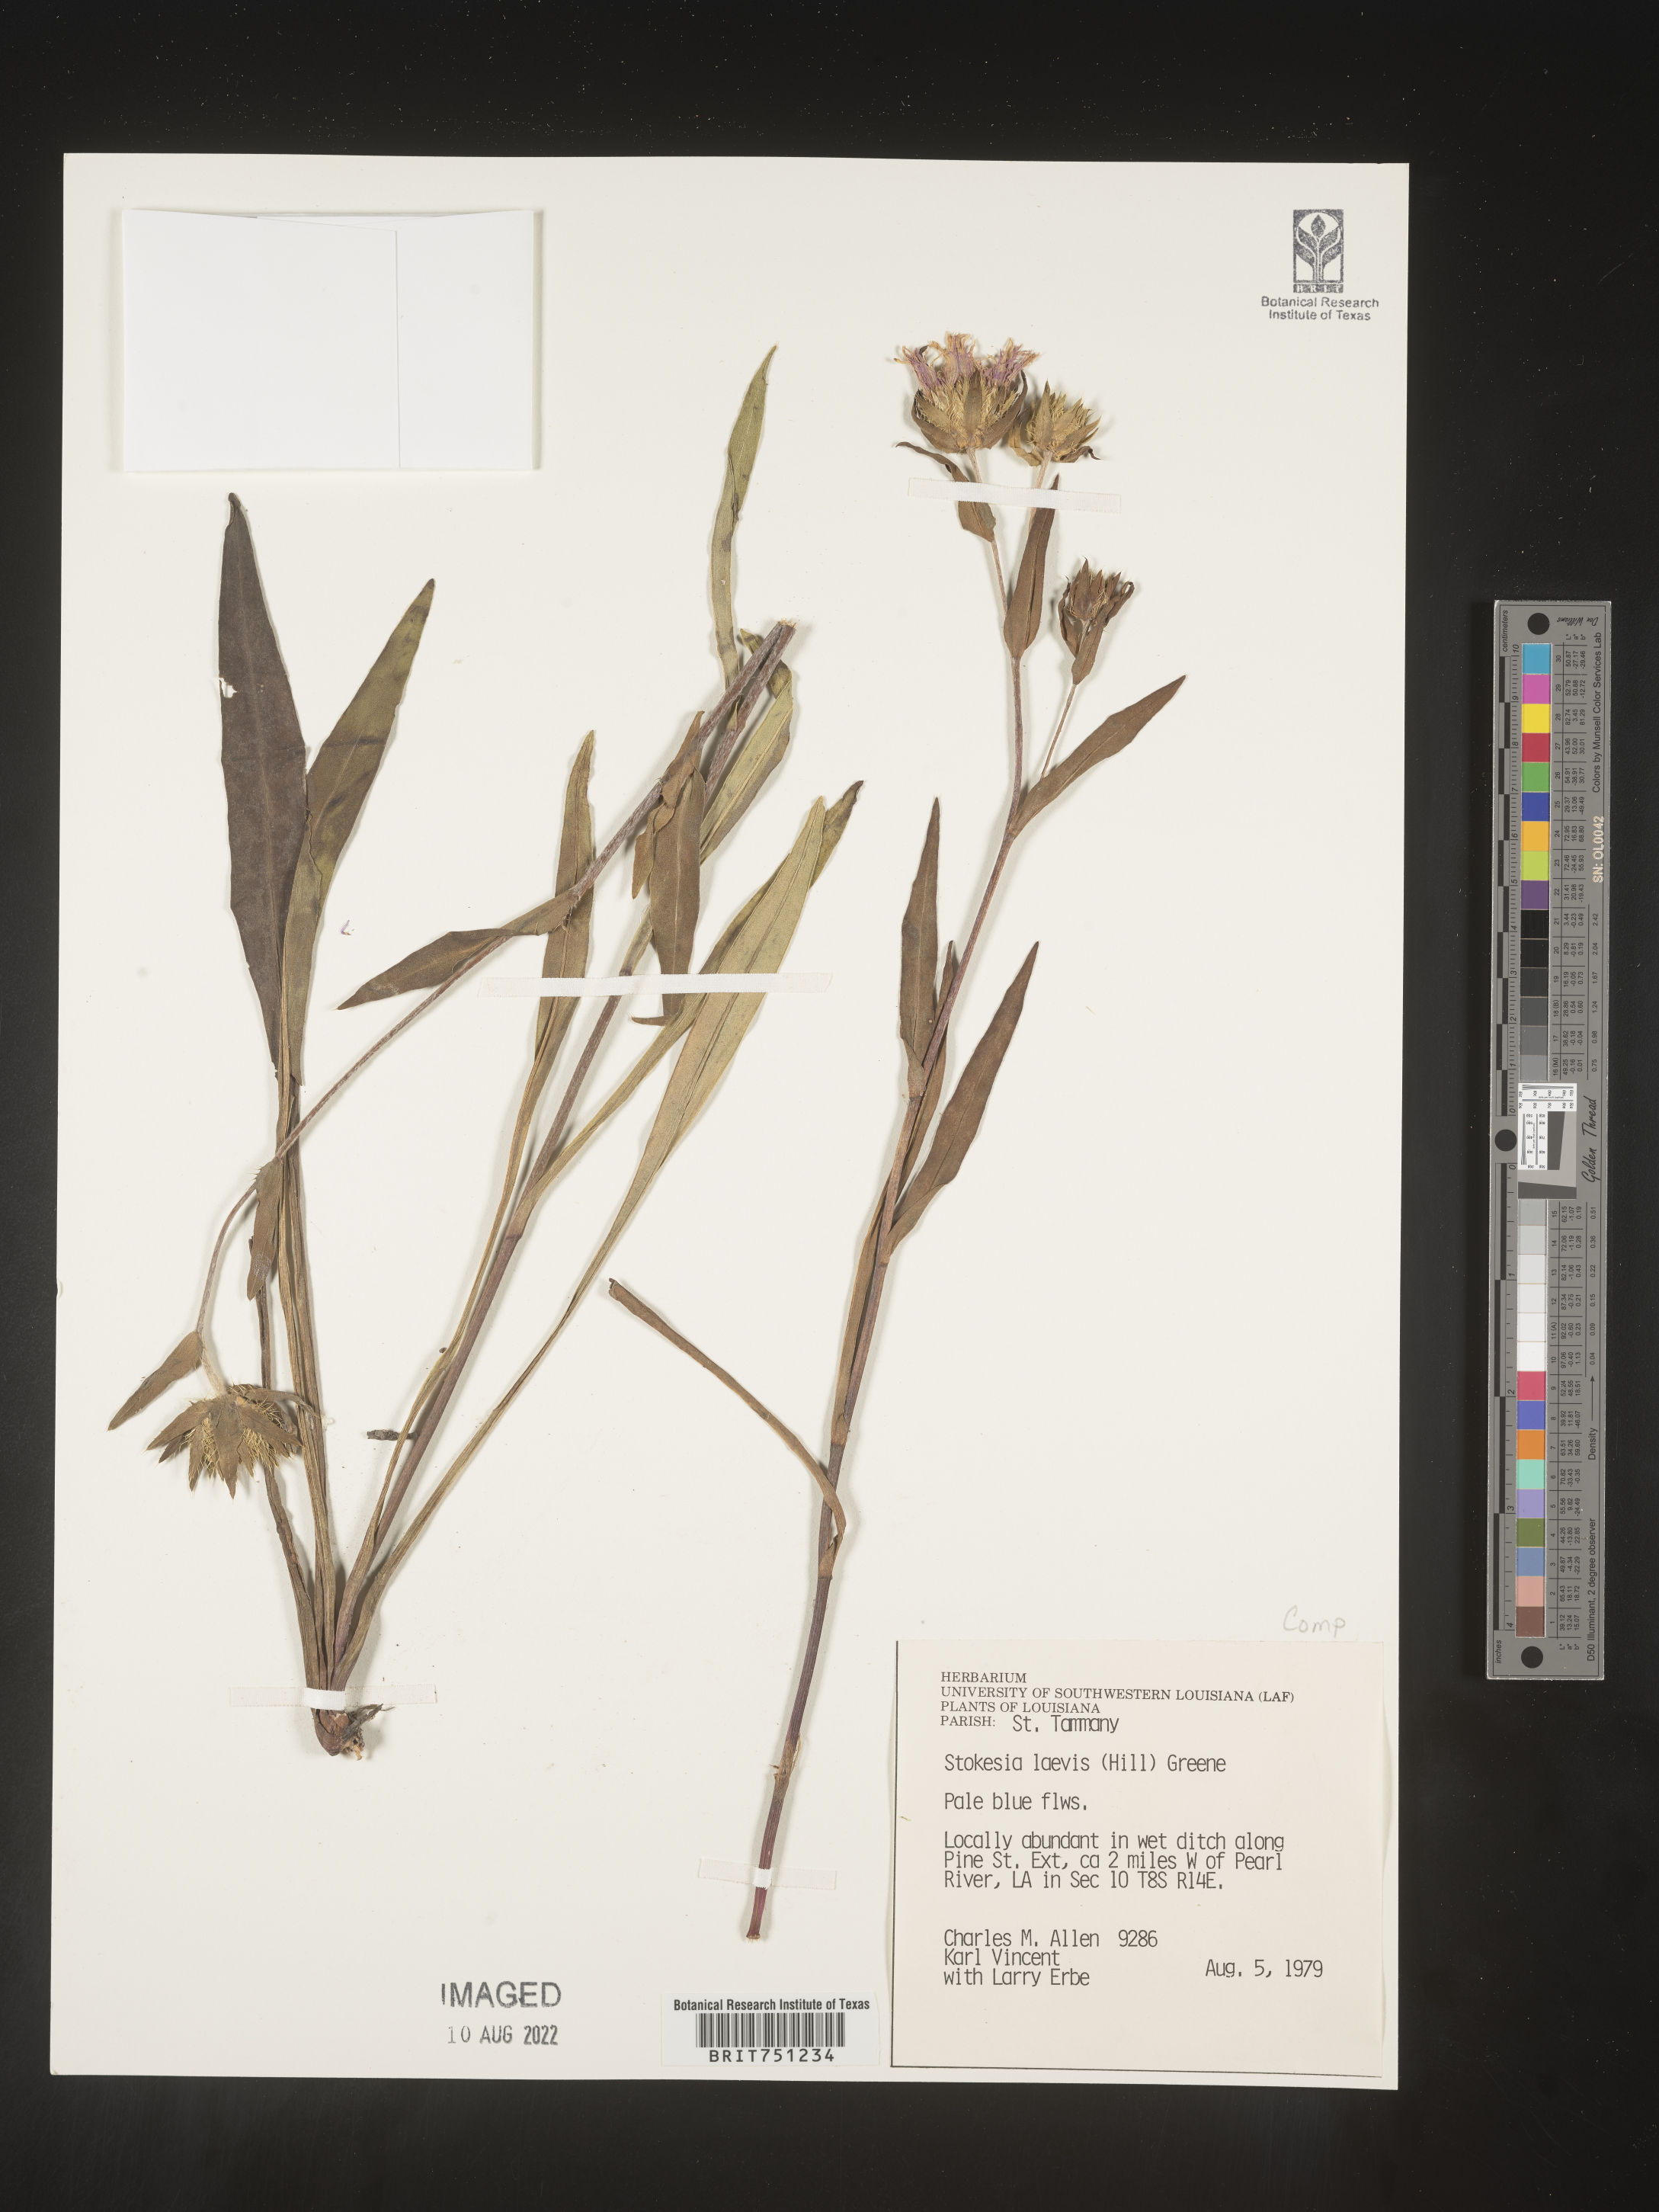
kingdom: Plantae
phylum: Tracheophyta
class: Magnoliopsida
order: Asterales
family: Asteraceae
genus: Stokesia
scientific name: Stokesia
